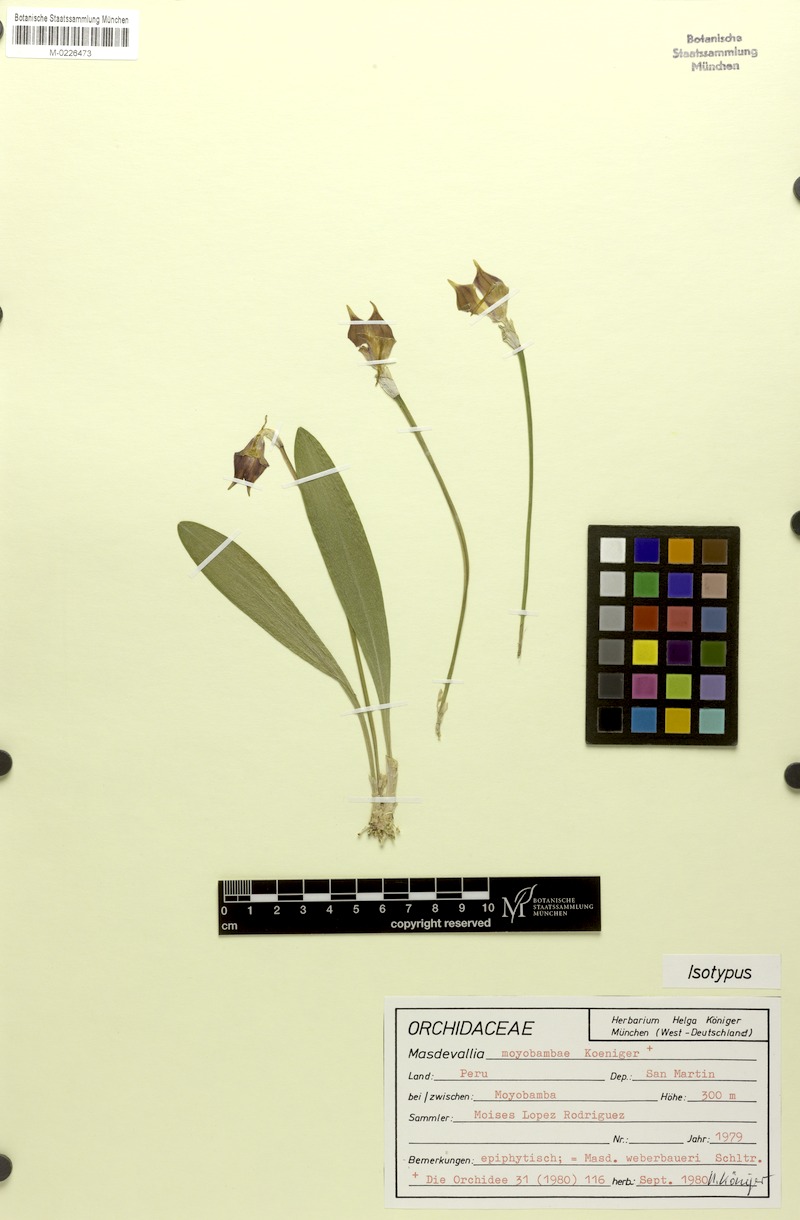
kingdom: Plantae
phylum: Tracheophyta
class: Liliopsida
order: Asparagales
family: Orchidaceae
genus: Masdevallia
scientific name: Masdevallia weberbaueri
